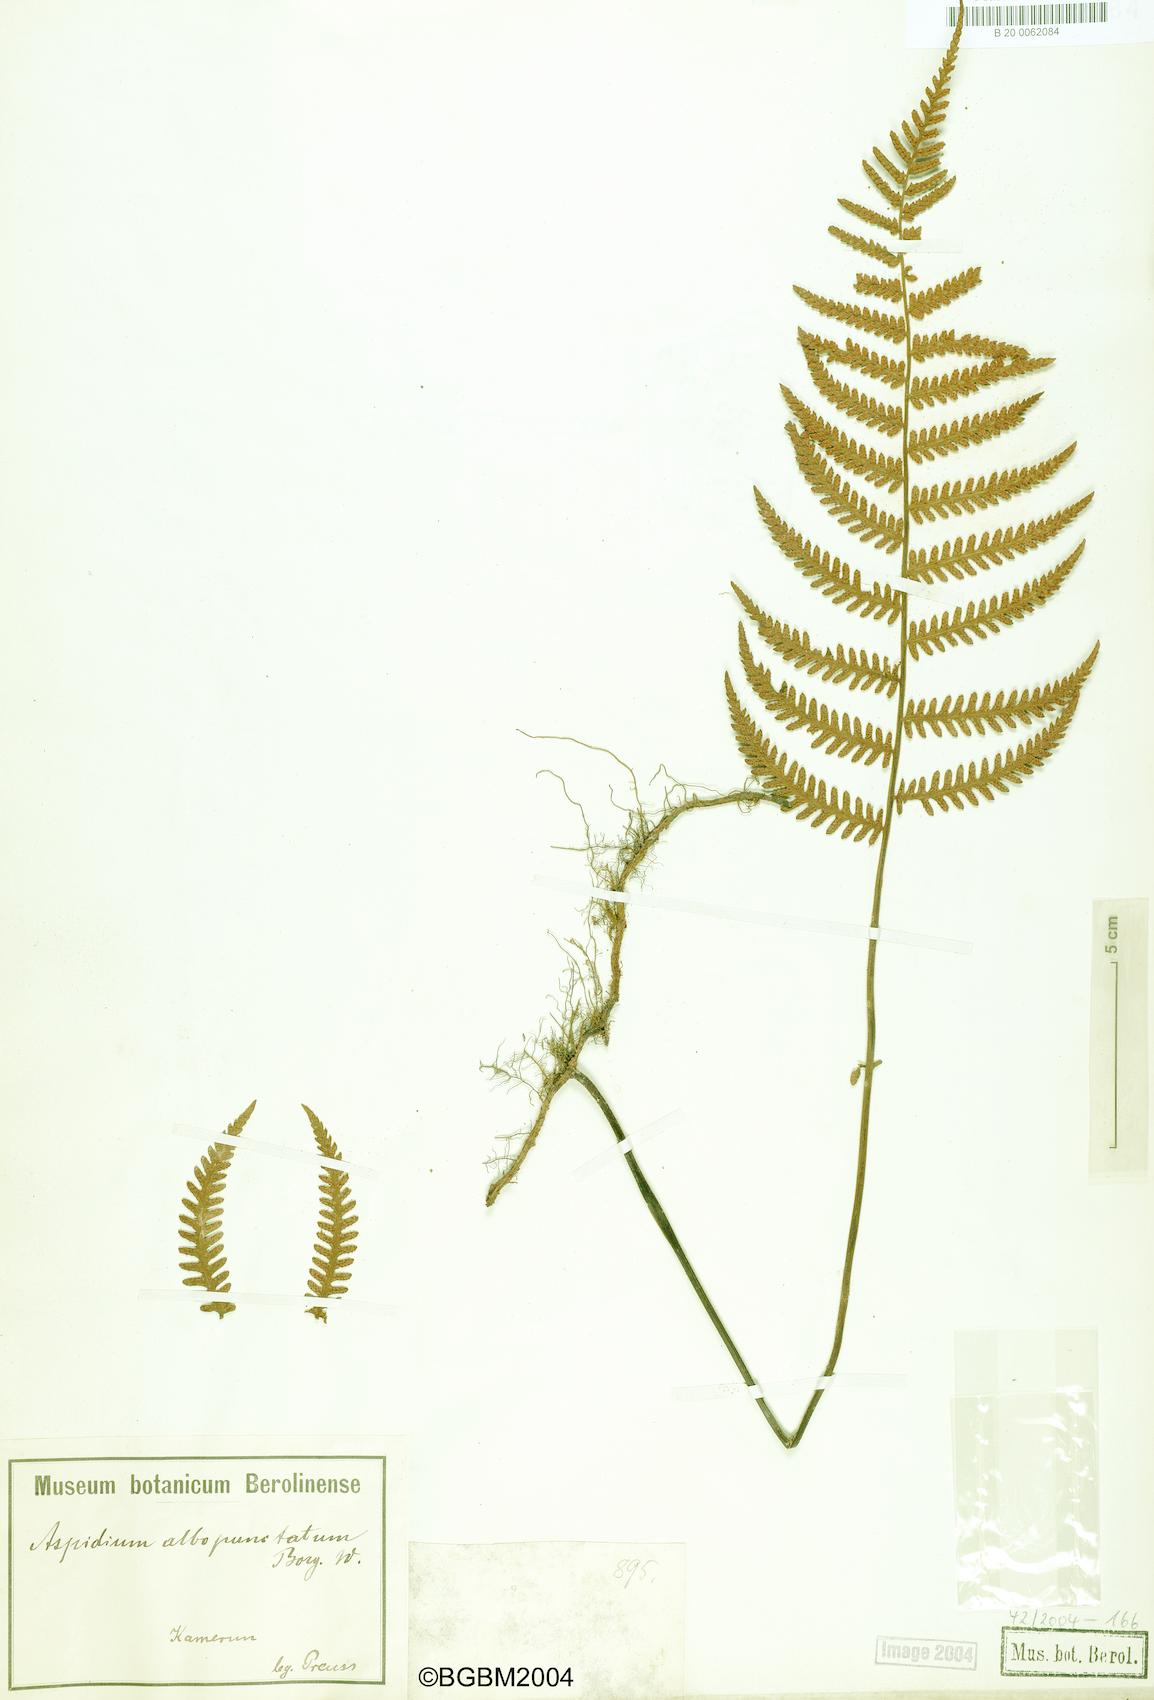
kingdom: Plantae
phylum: Tracheophyta
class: Polypodiopsida
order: Polypodiales
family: Tectariaceae
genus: Arthropteris
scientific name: Arthropteris orientalis
